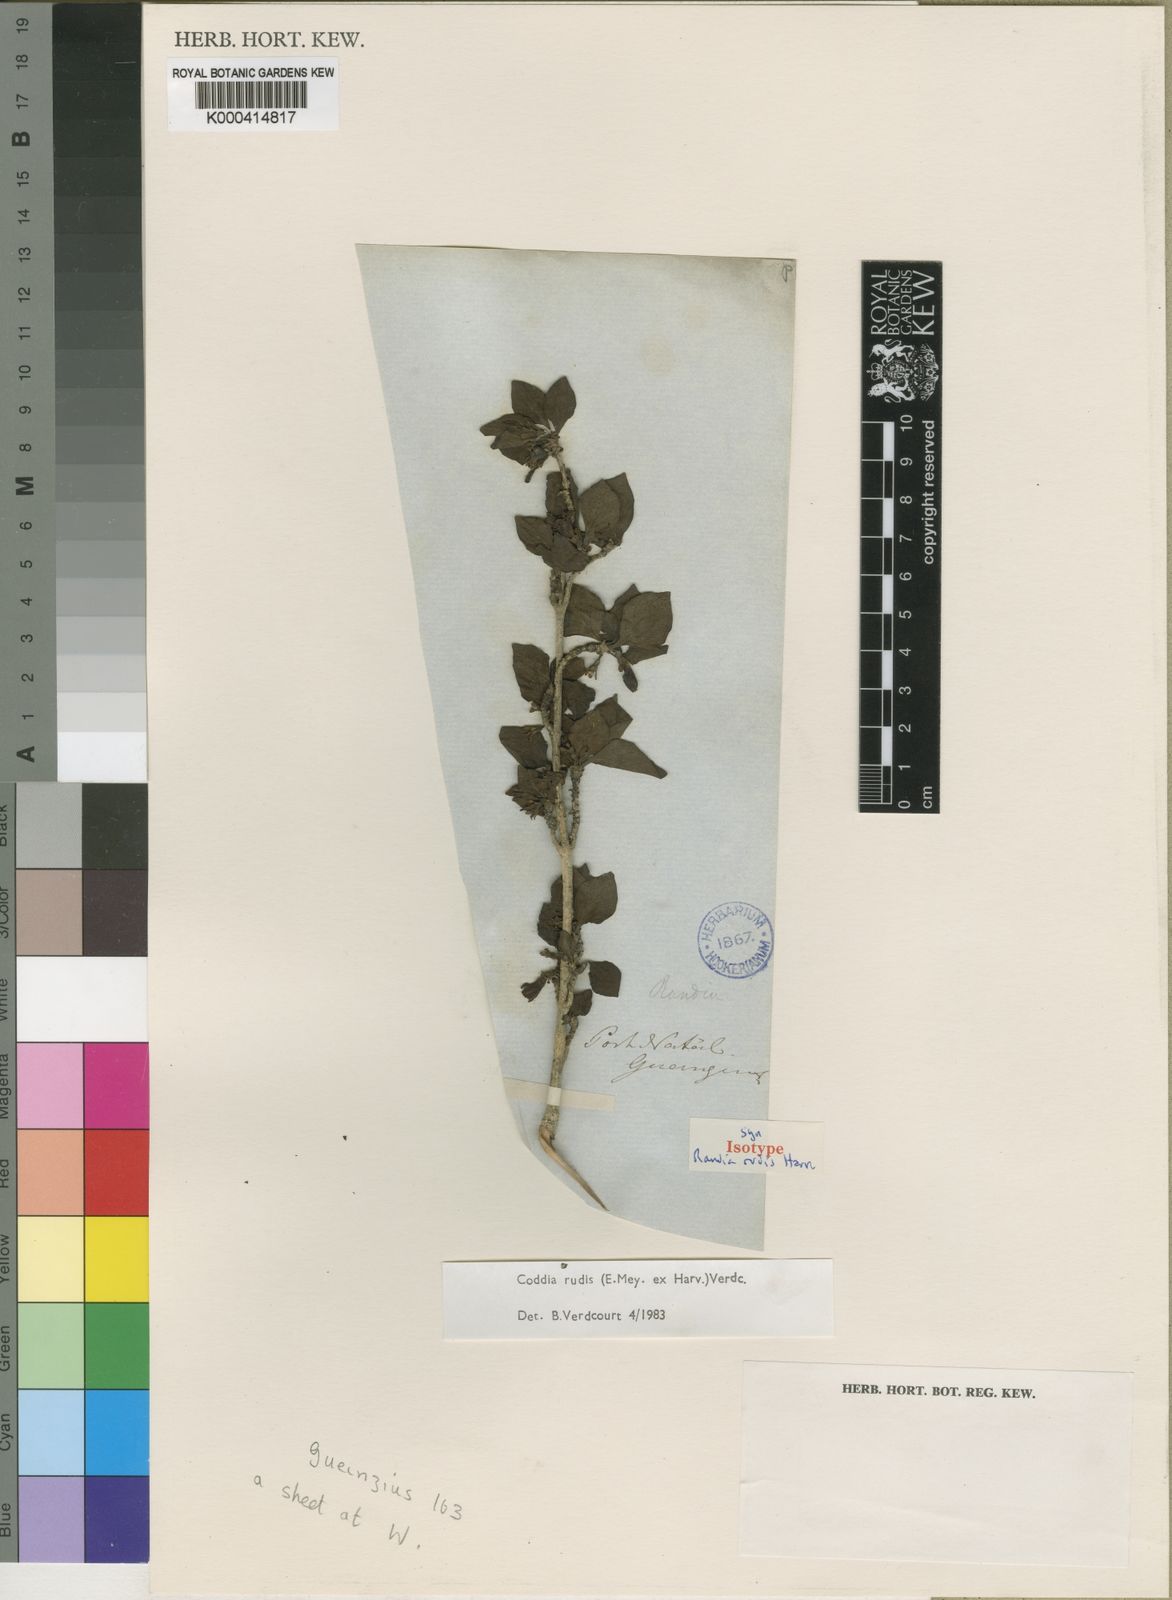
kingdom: Plantae
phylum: Tracheophyta
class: Magnoliopsida
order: Gentianales
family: Rubiaceae
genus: Coddia
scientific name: Coddia rudis
